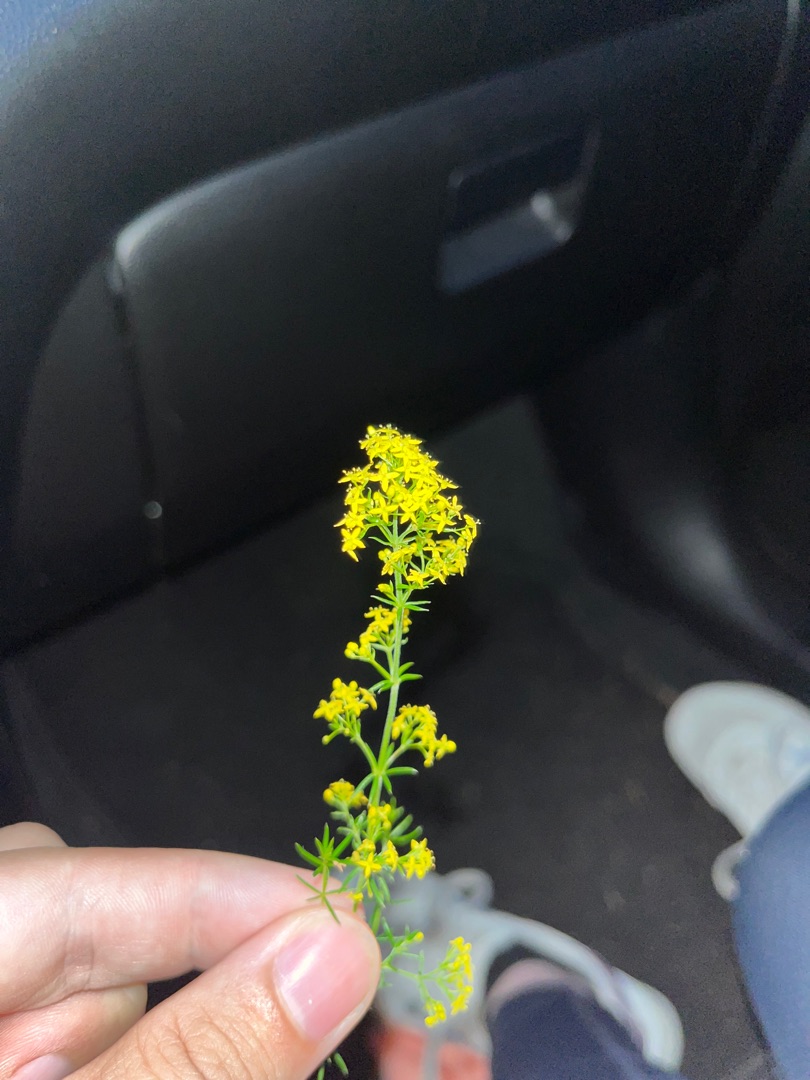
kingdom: Plantae
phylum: Tracheophyta
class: Magnoliopsida
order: Gentianales
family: Rubiaceae
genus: Galium
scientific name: Galium verum
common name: Gul snerre
